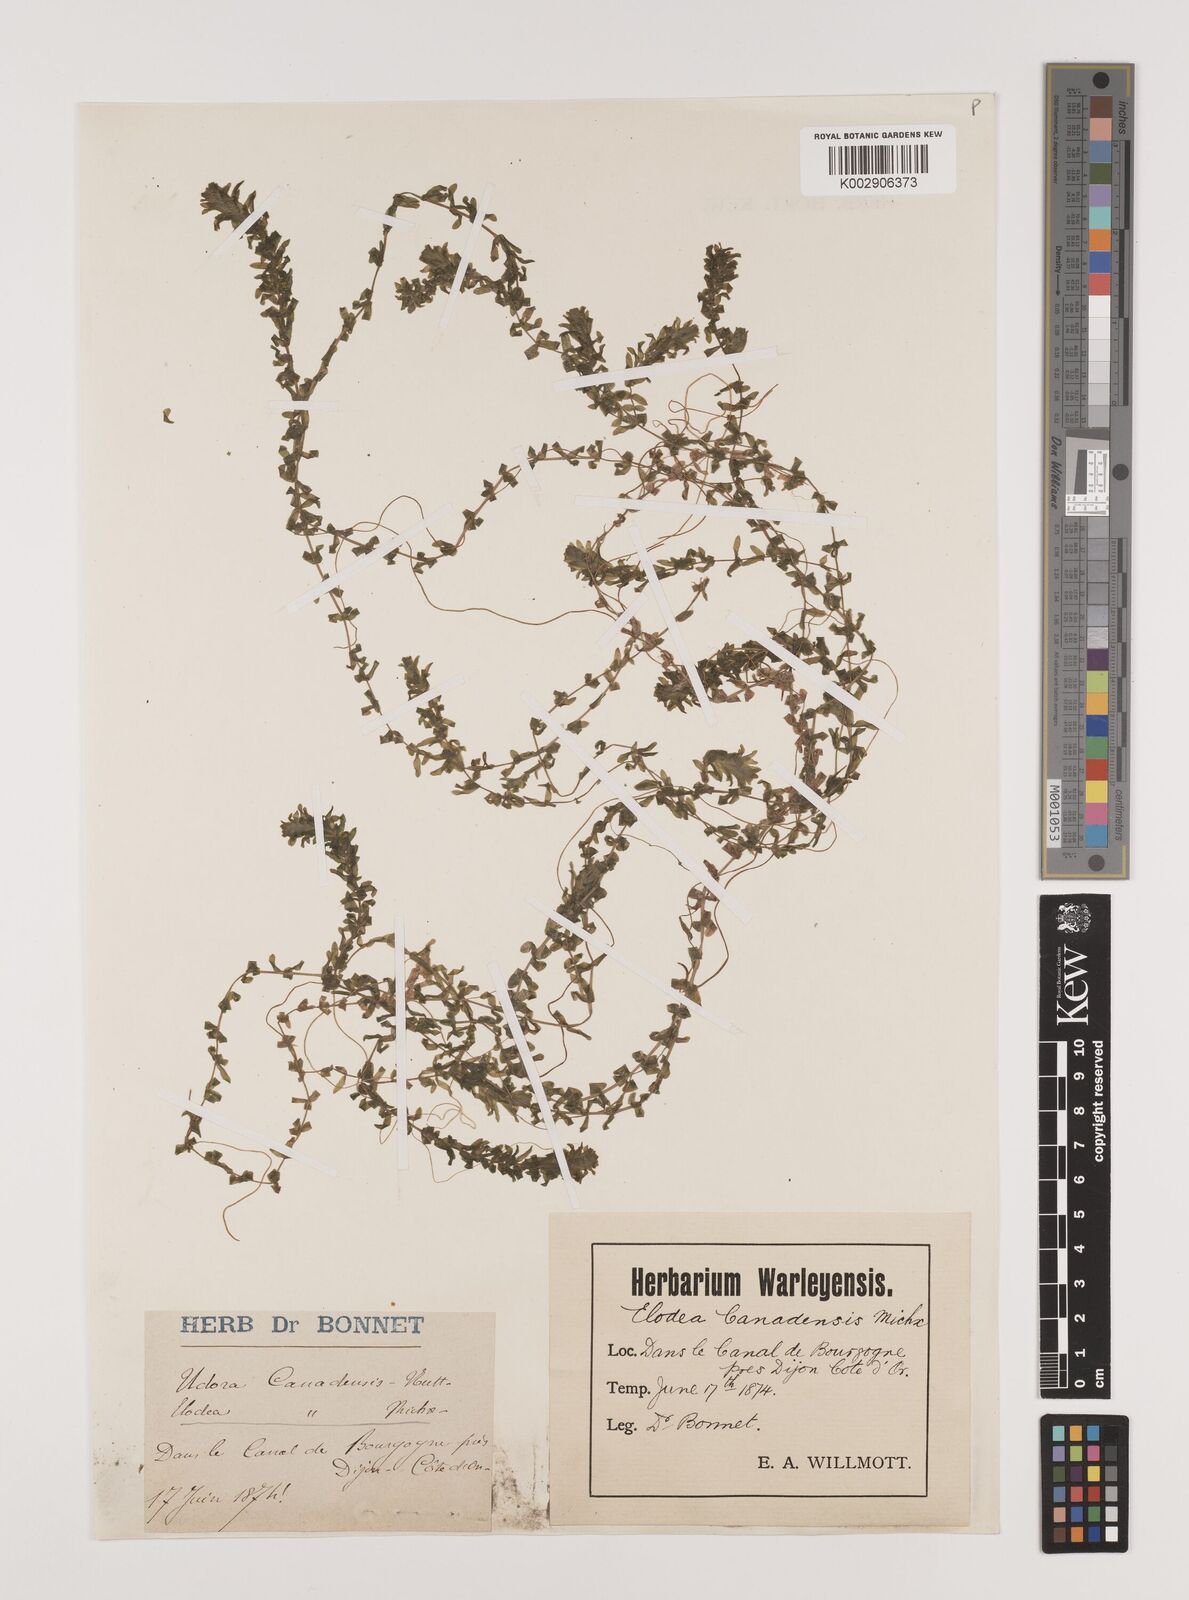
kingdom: Plantae
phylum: Tracheophyta
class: Liliopsida
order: Alismatales
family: Hydrocharitaceae
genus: Elodea
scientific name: Elodea canadensis
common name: Canadian waterweed
